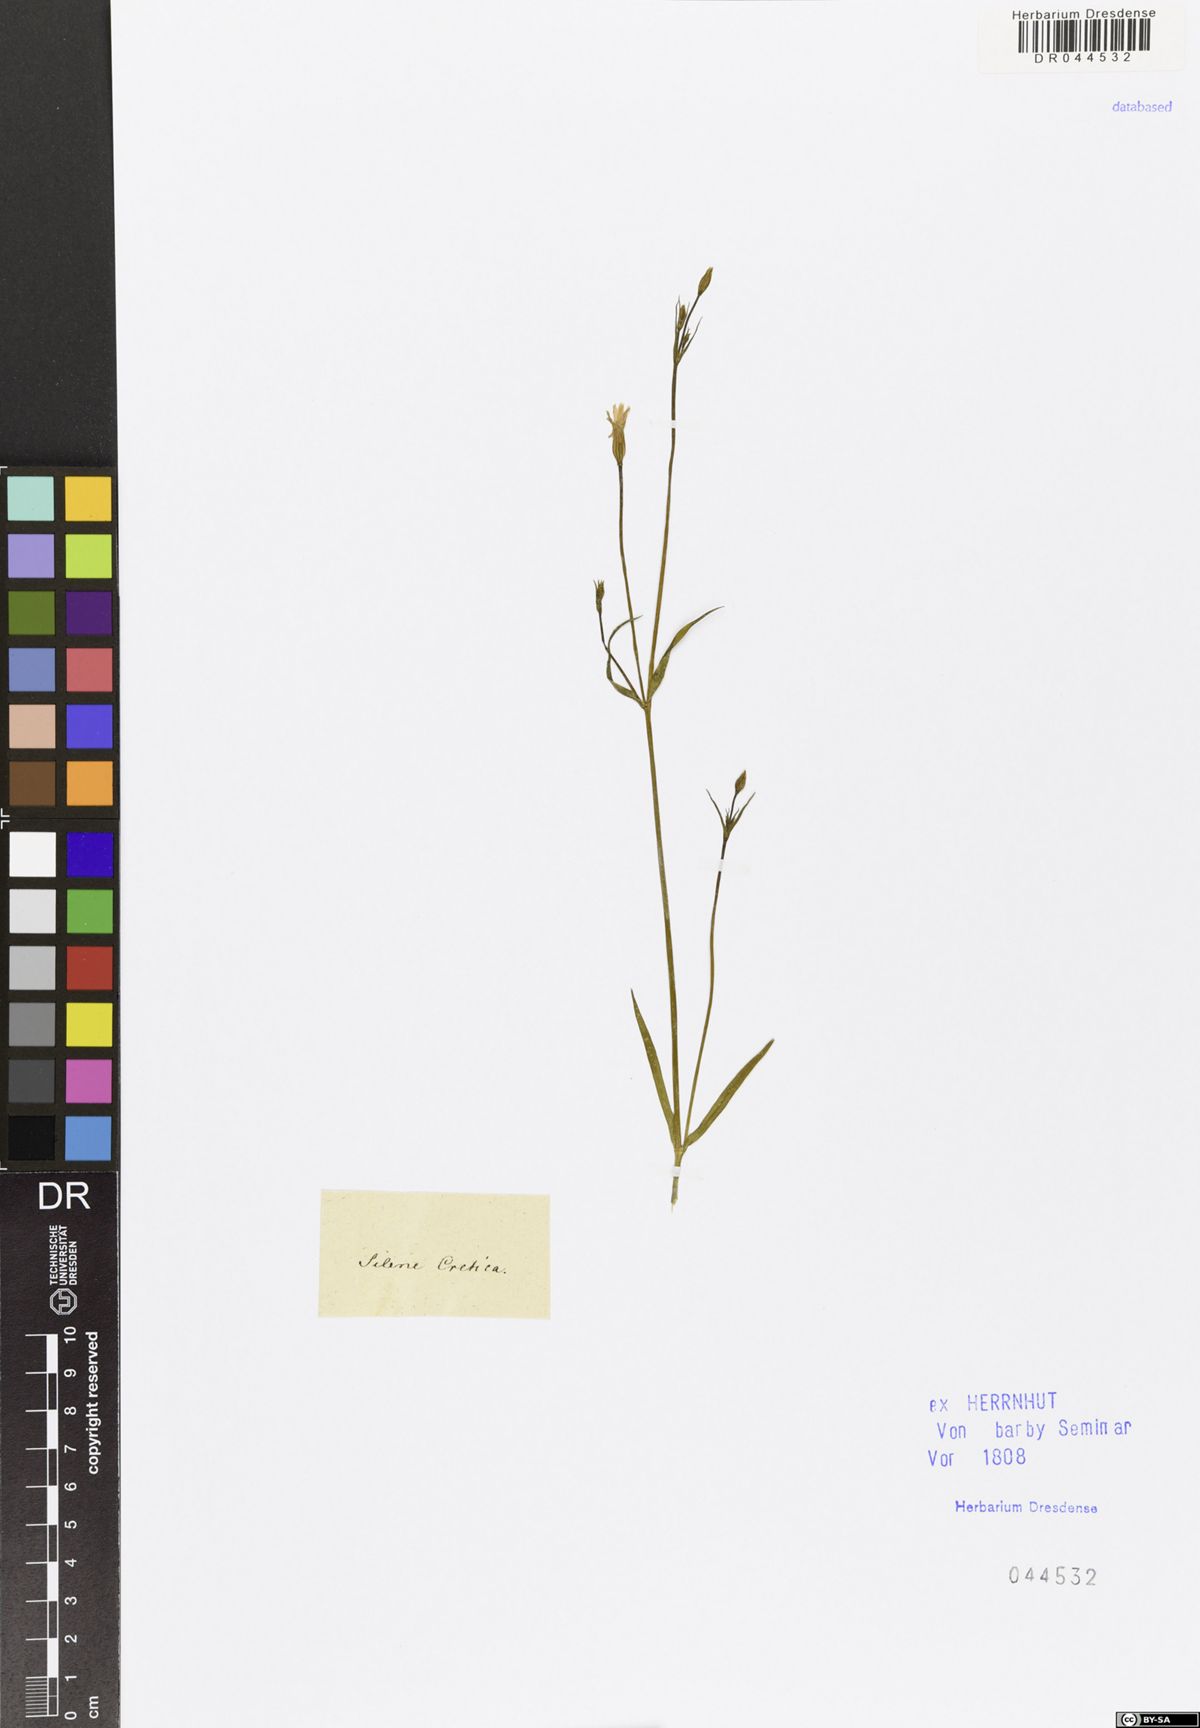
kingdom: Plantae
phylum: Tracheophyta
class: Magnoliopsida
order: Caryophyllales
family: Caryophyllaceae
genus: Silene
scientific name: Silene cretica
